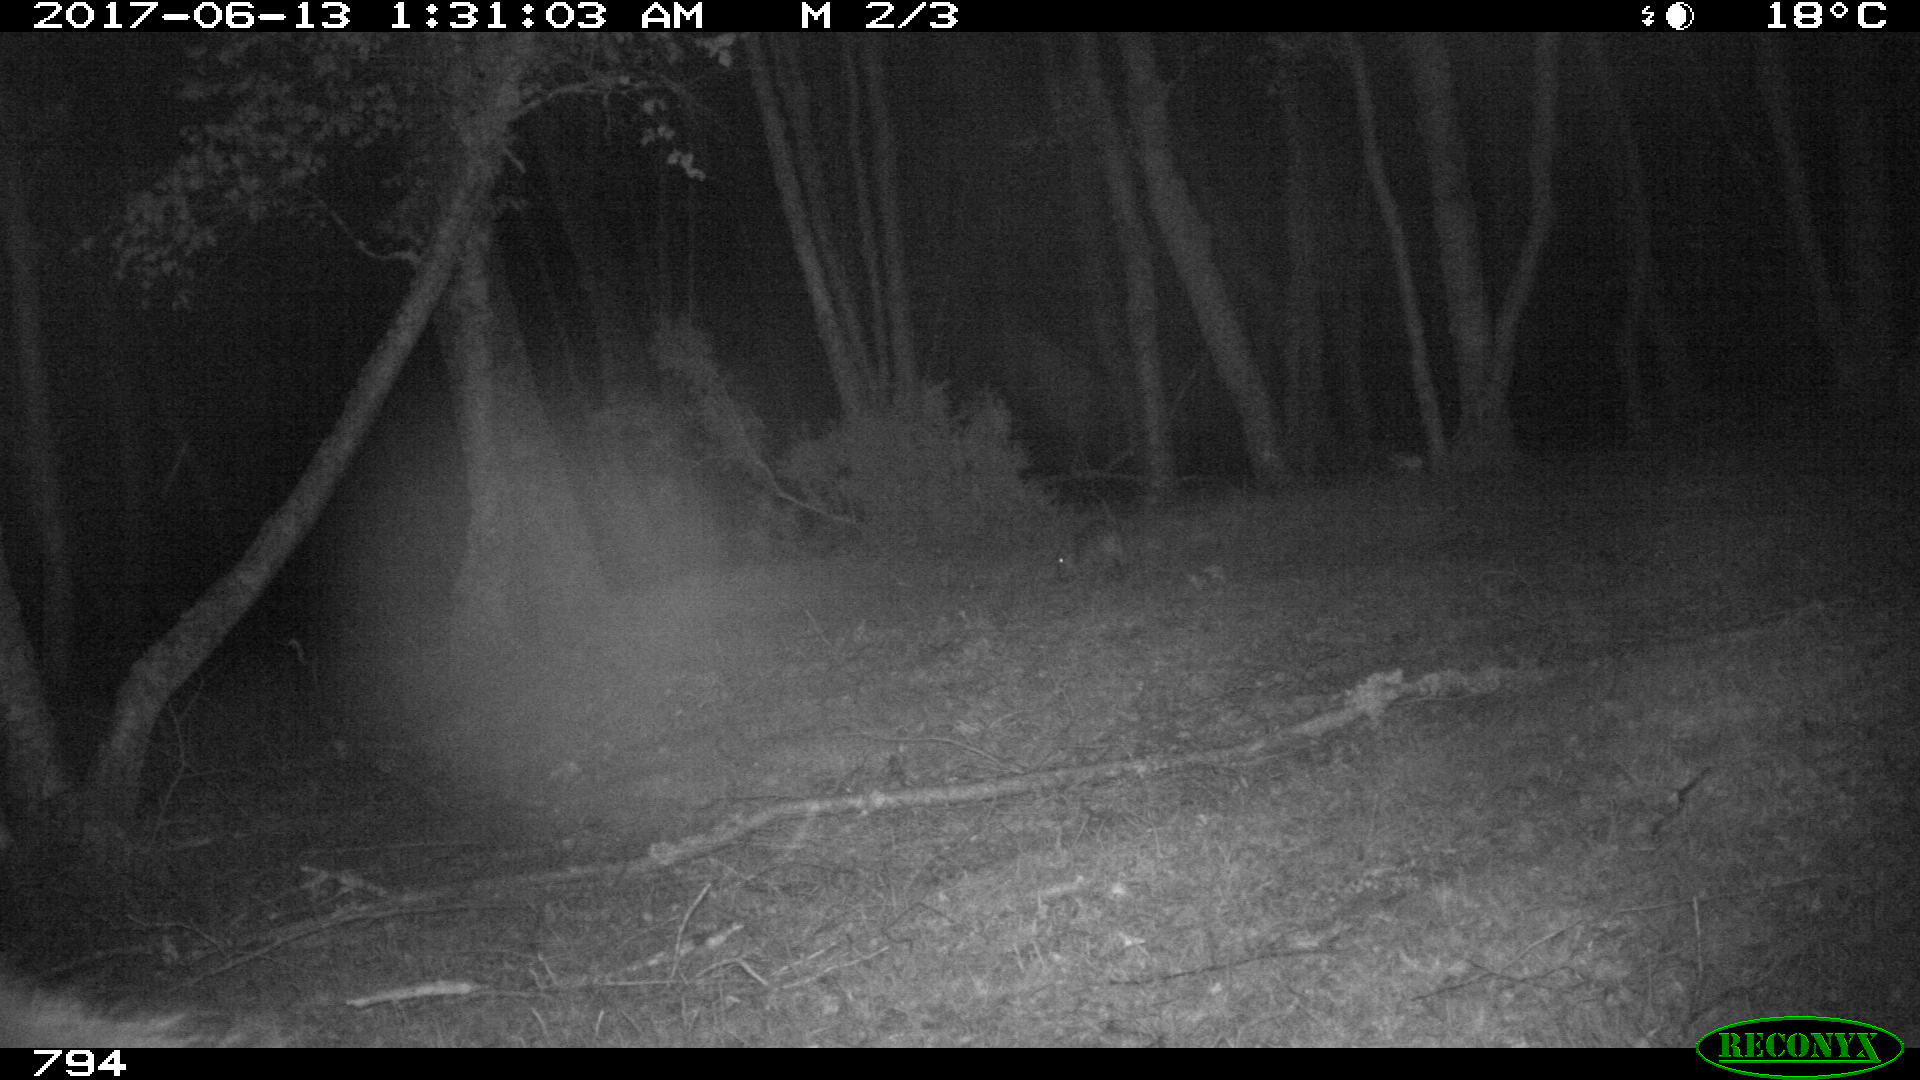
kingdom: Animalia
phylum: Chordata
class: Mammalia
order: Artiodactyla
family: Suidae
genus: Sus
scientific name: Sus scrofa
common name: Wild boar
